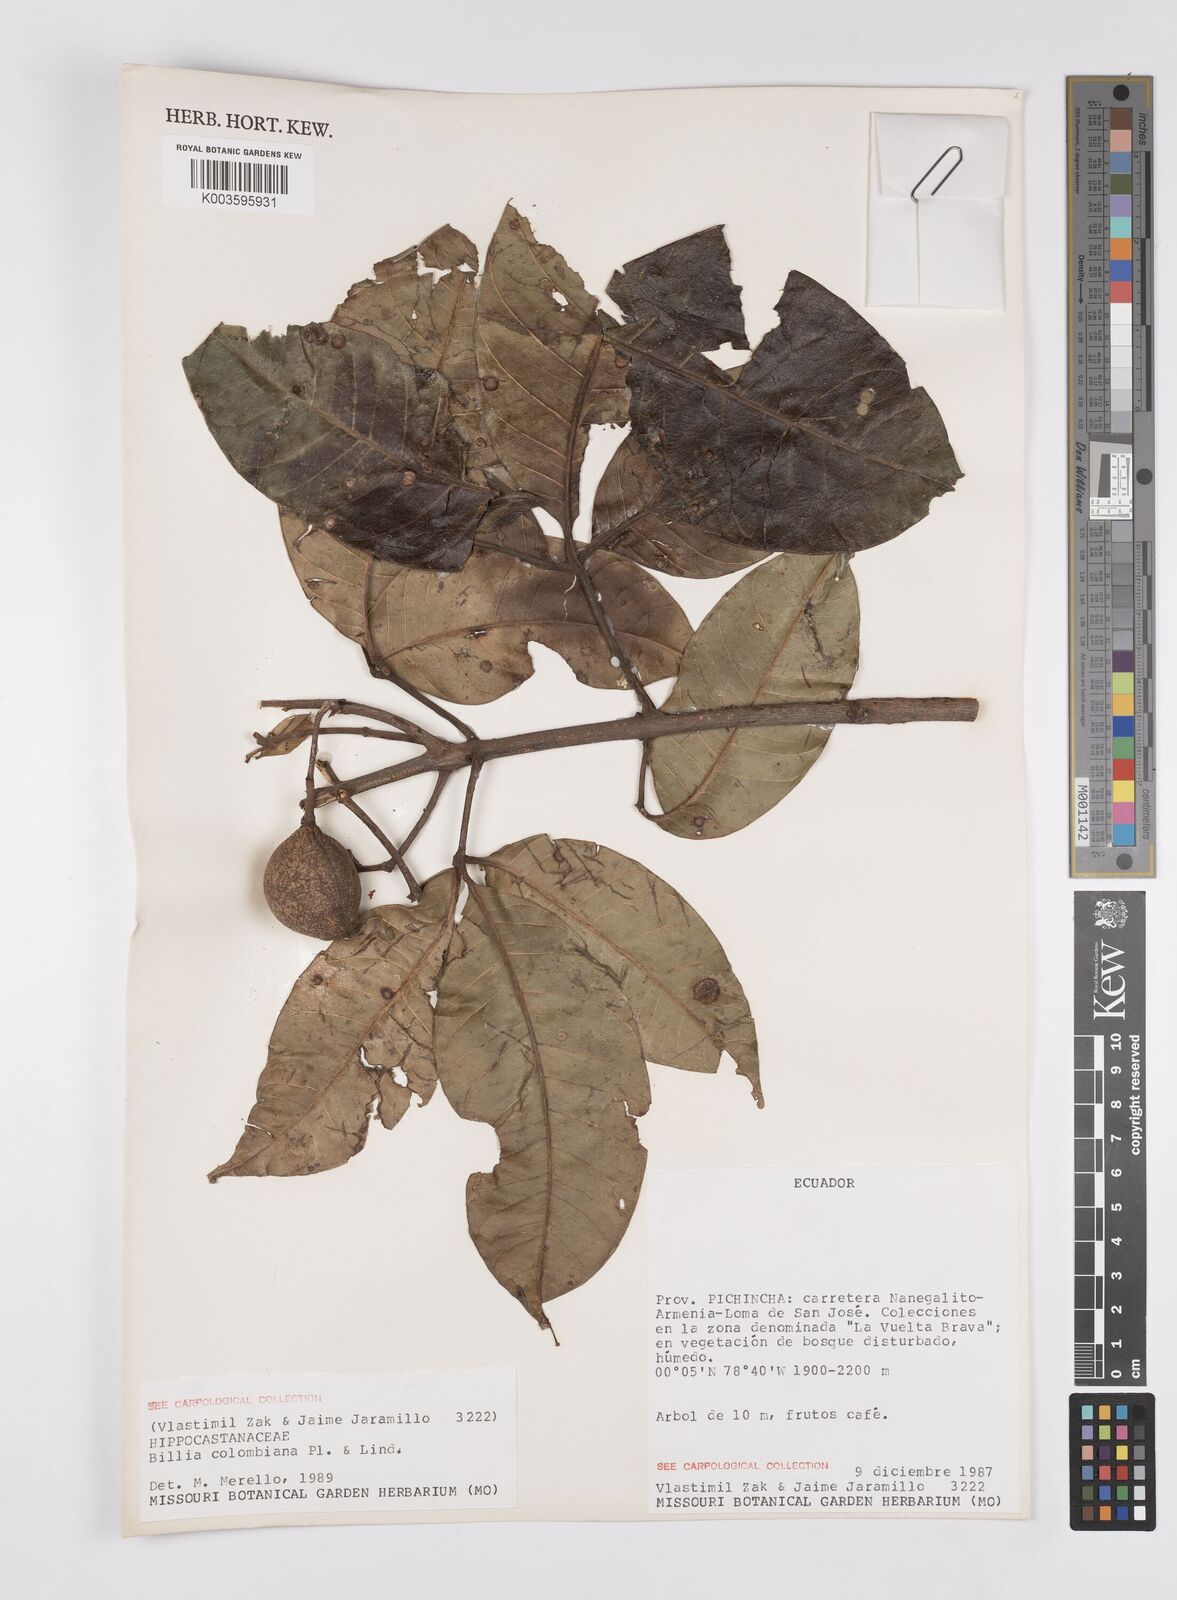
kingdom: Plantae
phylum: Tracheophyta
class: Magnoliopsida
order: Sapindales
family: Sapindaceae
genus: Billia
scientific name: Billia
